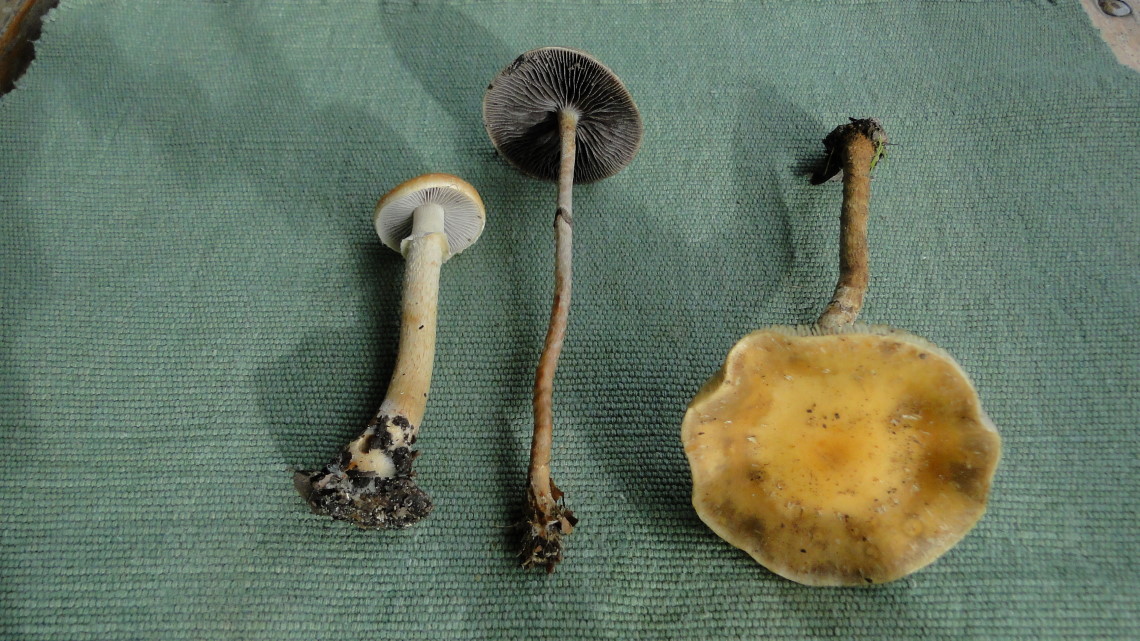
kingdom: Fungi
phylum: Basidiomycota
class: Agaricomycetes
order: Agaricales
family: Strophariaceae
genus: Leratiomyces
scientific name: Leratiomyces squamosus
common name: skællet bredblad
